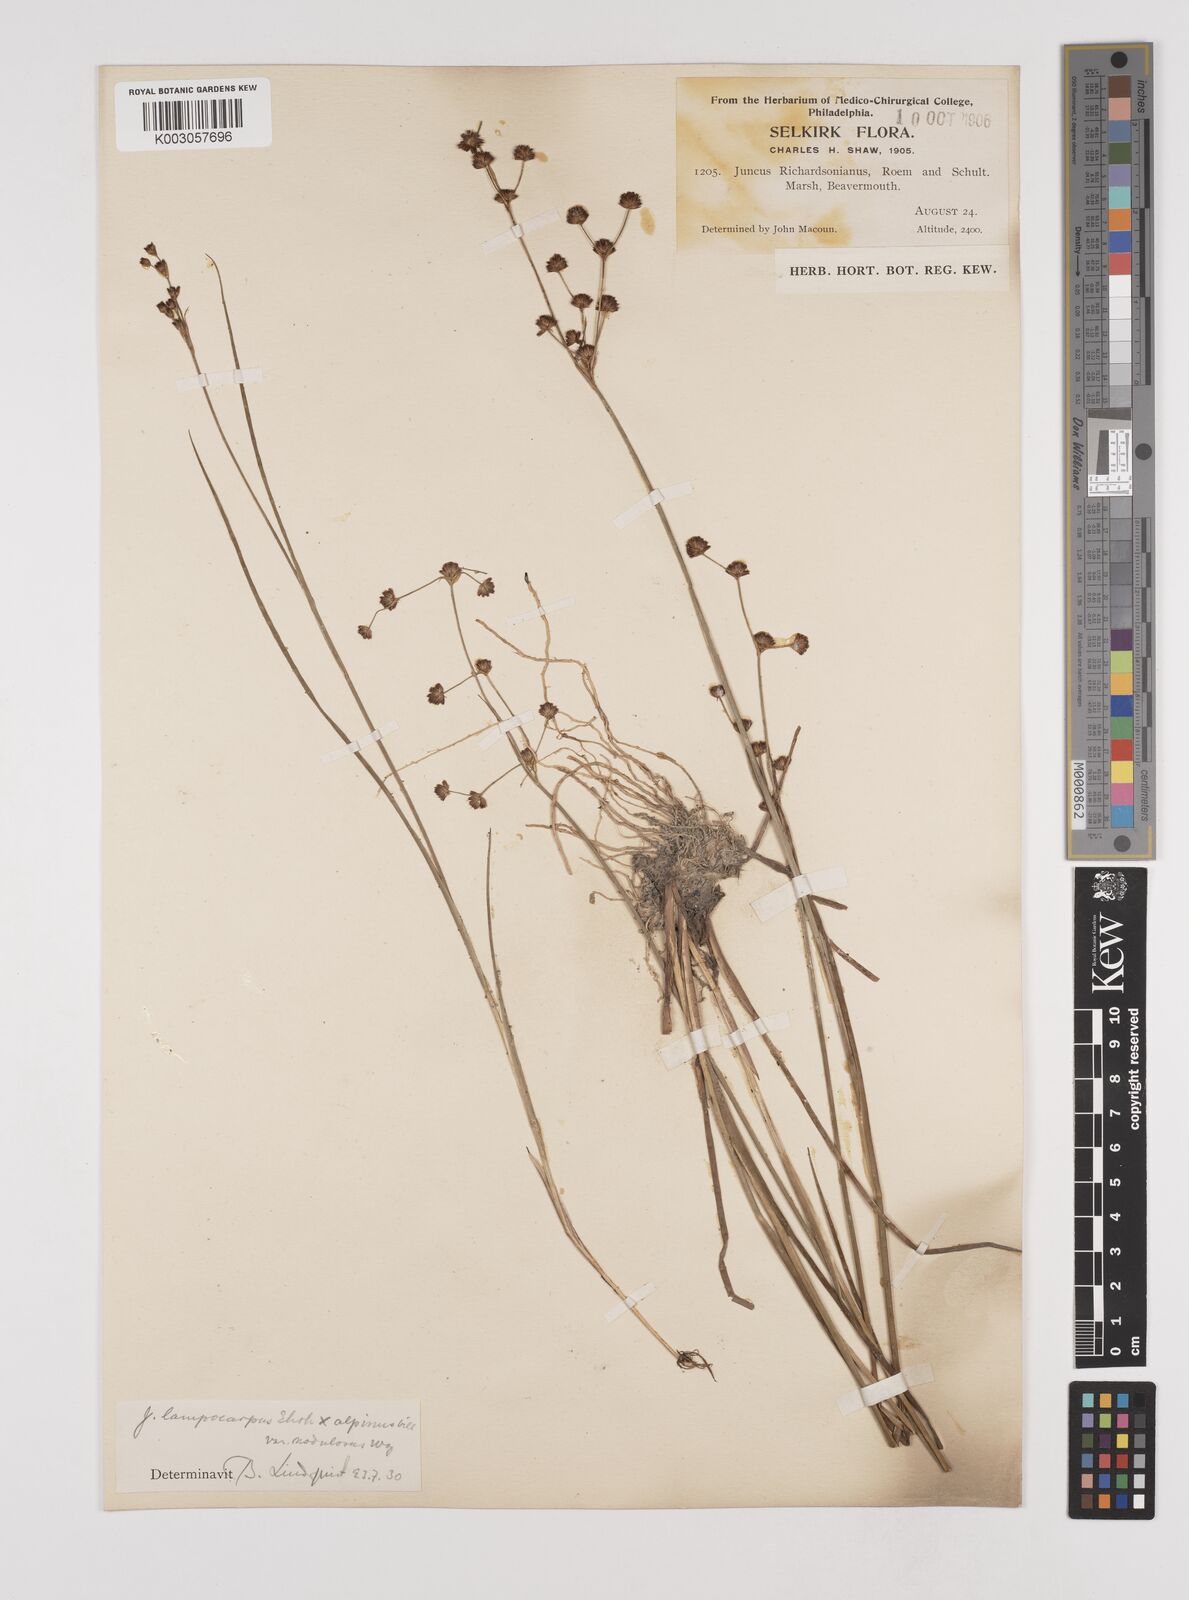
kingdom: Plantae
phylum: Tracheophyta
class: Liliopsida
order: Poales
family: Juncaceae
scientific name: Juncaceae
